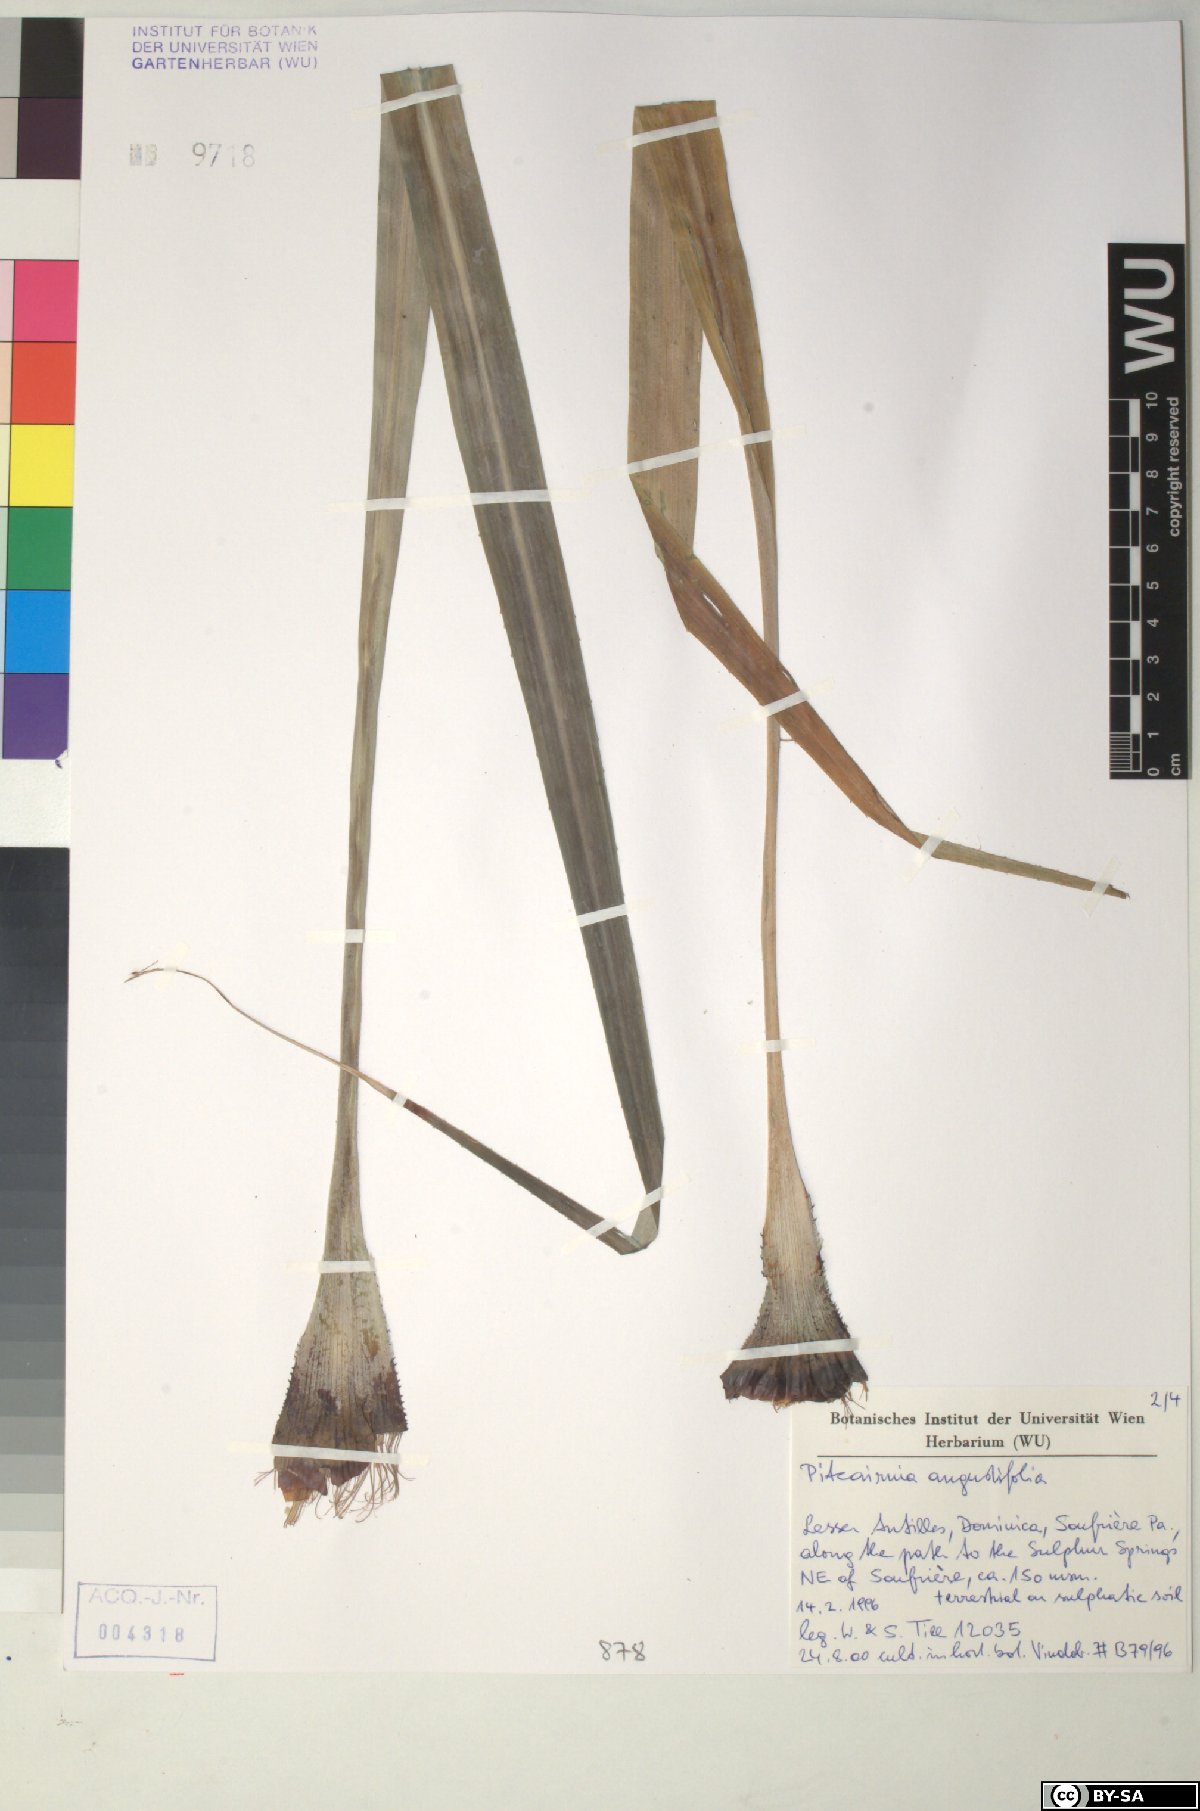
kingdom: Plantae
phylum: Tracheophyta
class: Liliopsida
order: Poales
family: Bromeliaceae
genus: Pitcairnia
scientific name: Pitcairnia angustifolia
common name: Clapper
